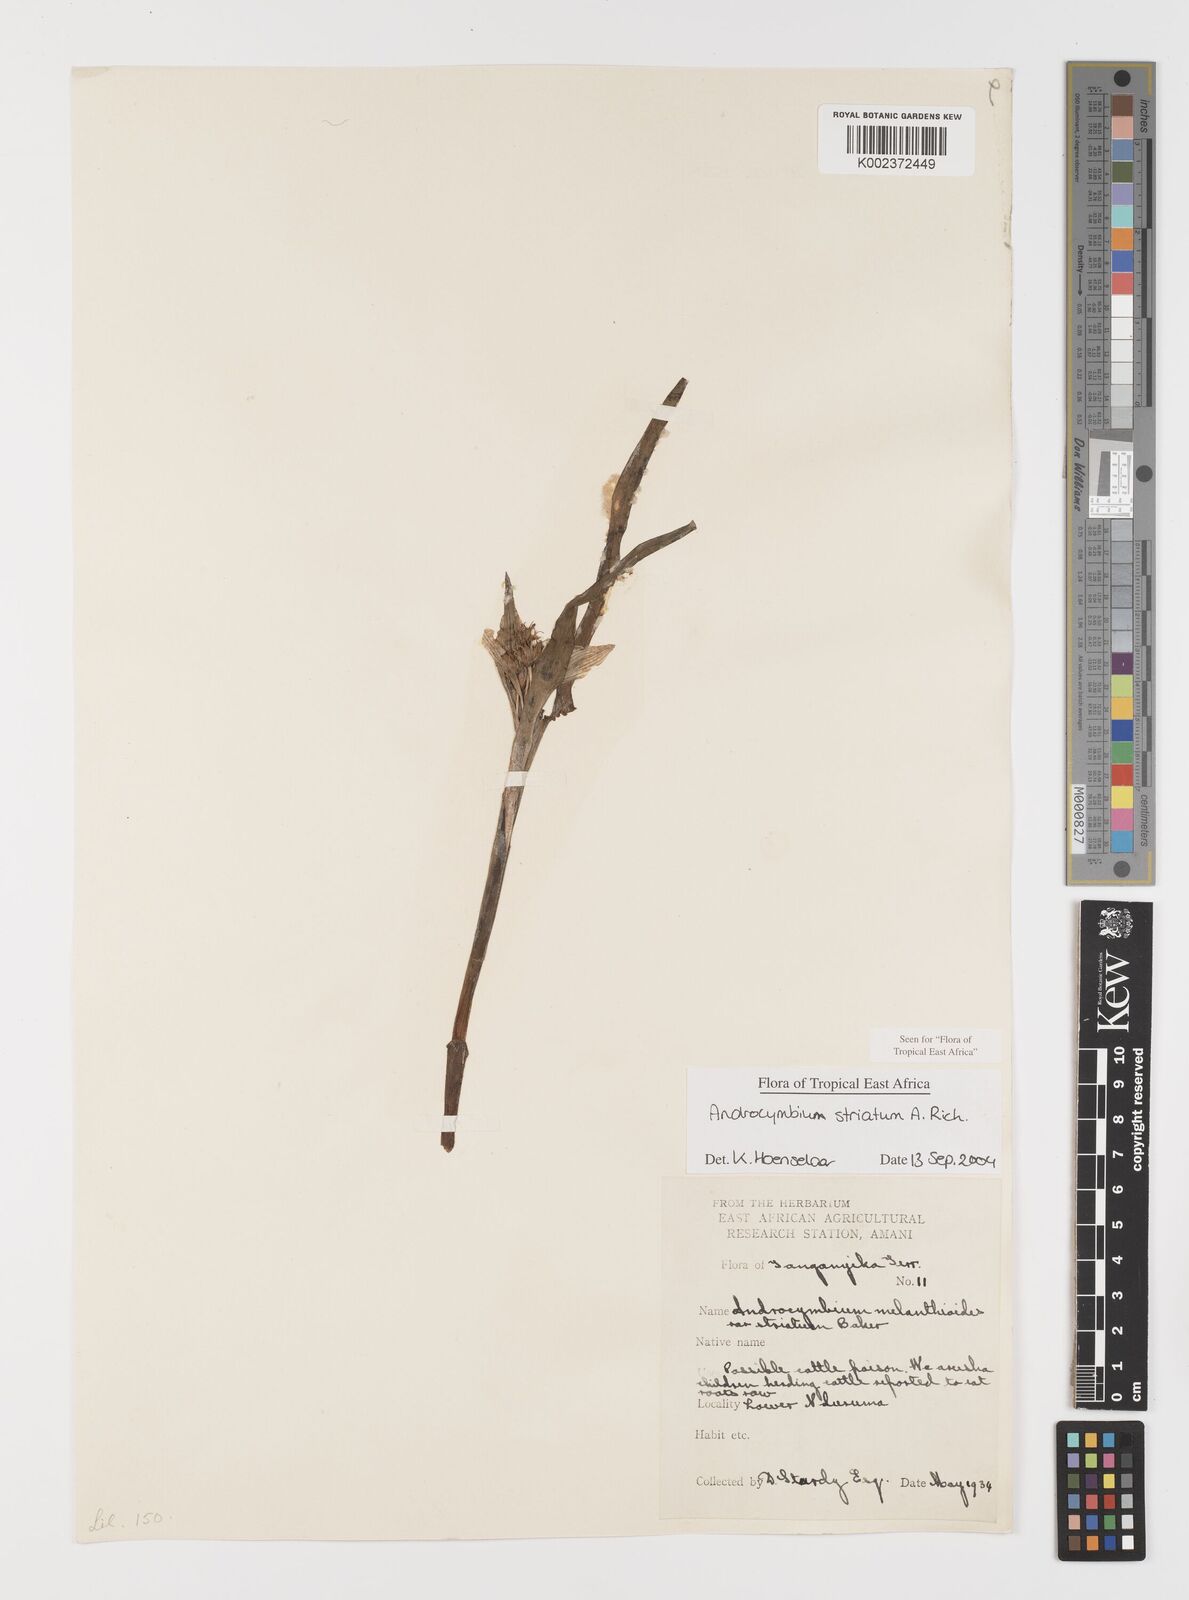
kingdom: Plantae
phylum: Tracheophyta
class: Liliopsida
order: Liliales
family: Colchicaceae
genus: Colchicum
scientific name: Colchicum striatum
